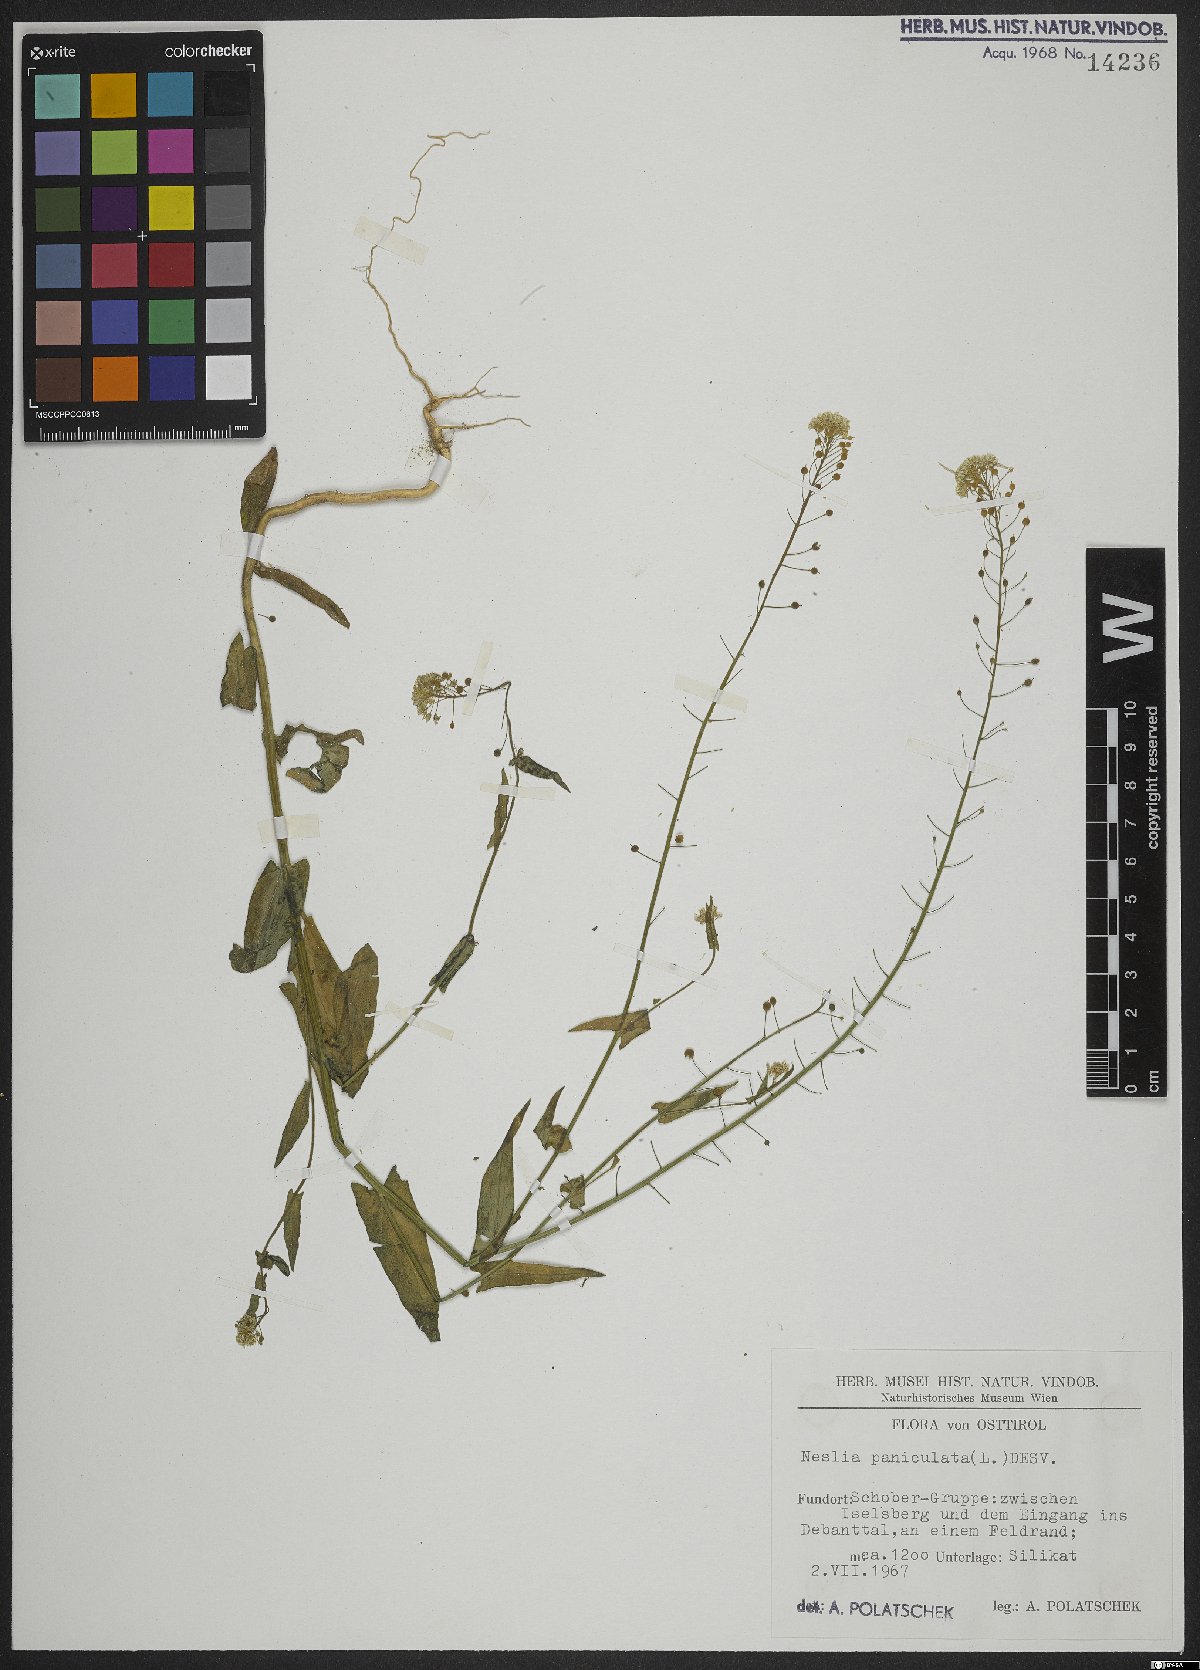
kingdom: Plantae
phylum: Tracheophyta
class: Magnoliopsida
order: Brassicales
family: Brassicaceae
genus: Neslia
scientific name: Neslia paniculata
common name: Ball mustard
